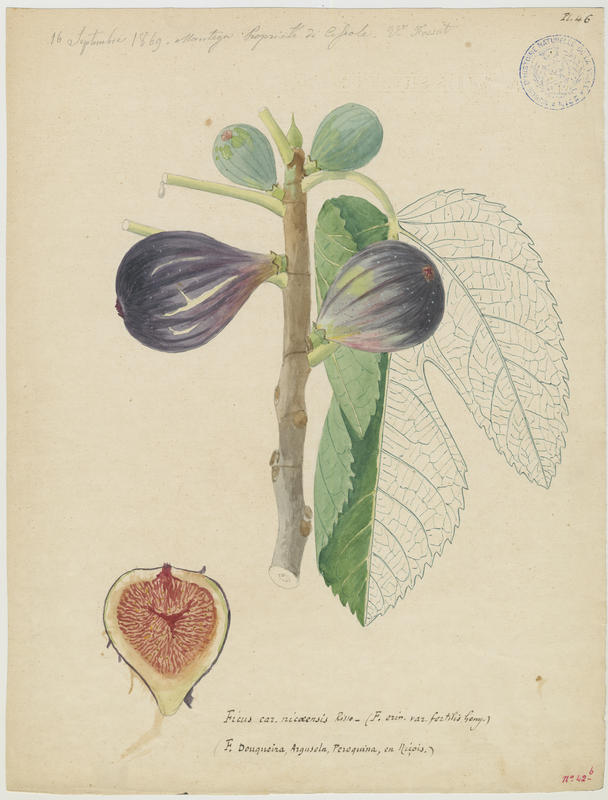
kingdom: Plantae
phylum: Tracheophyta
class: Magnoliopsida
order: Rosales
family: Moraceae
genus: Ficus
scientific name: Ficus carica
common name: Fig
